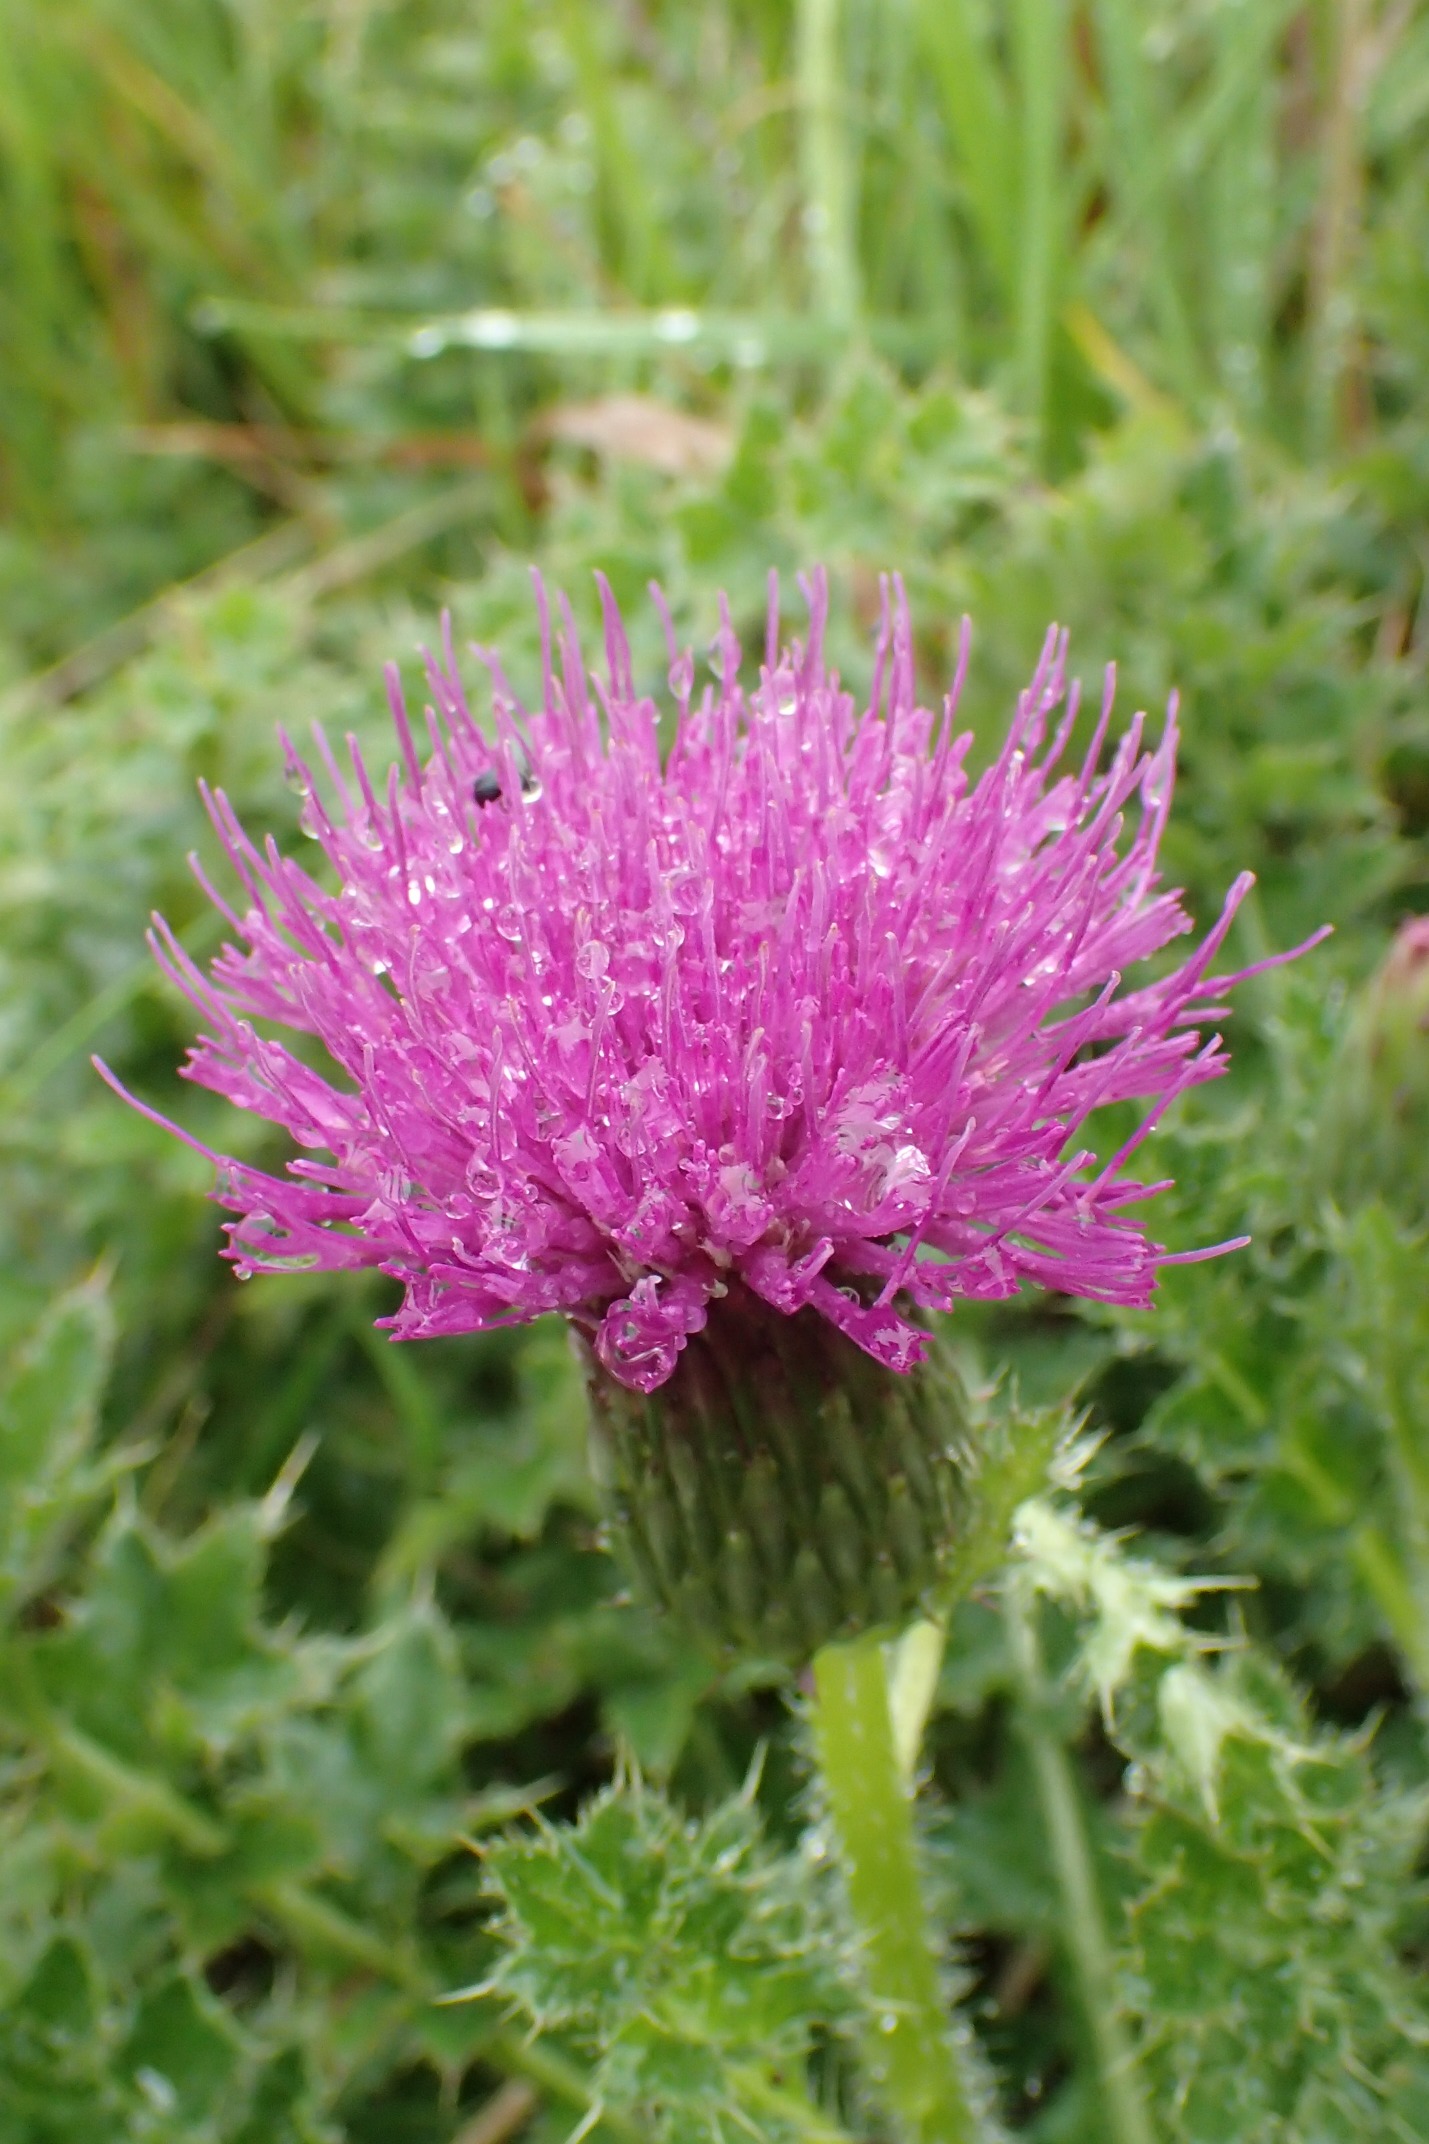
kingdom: Plantae
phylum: Tracheophyta
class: Magnoliopsida
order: Asterales
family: Asteraceae
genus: Cirsium
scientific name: Cirsium acaule
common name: Lav tidsel
